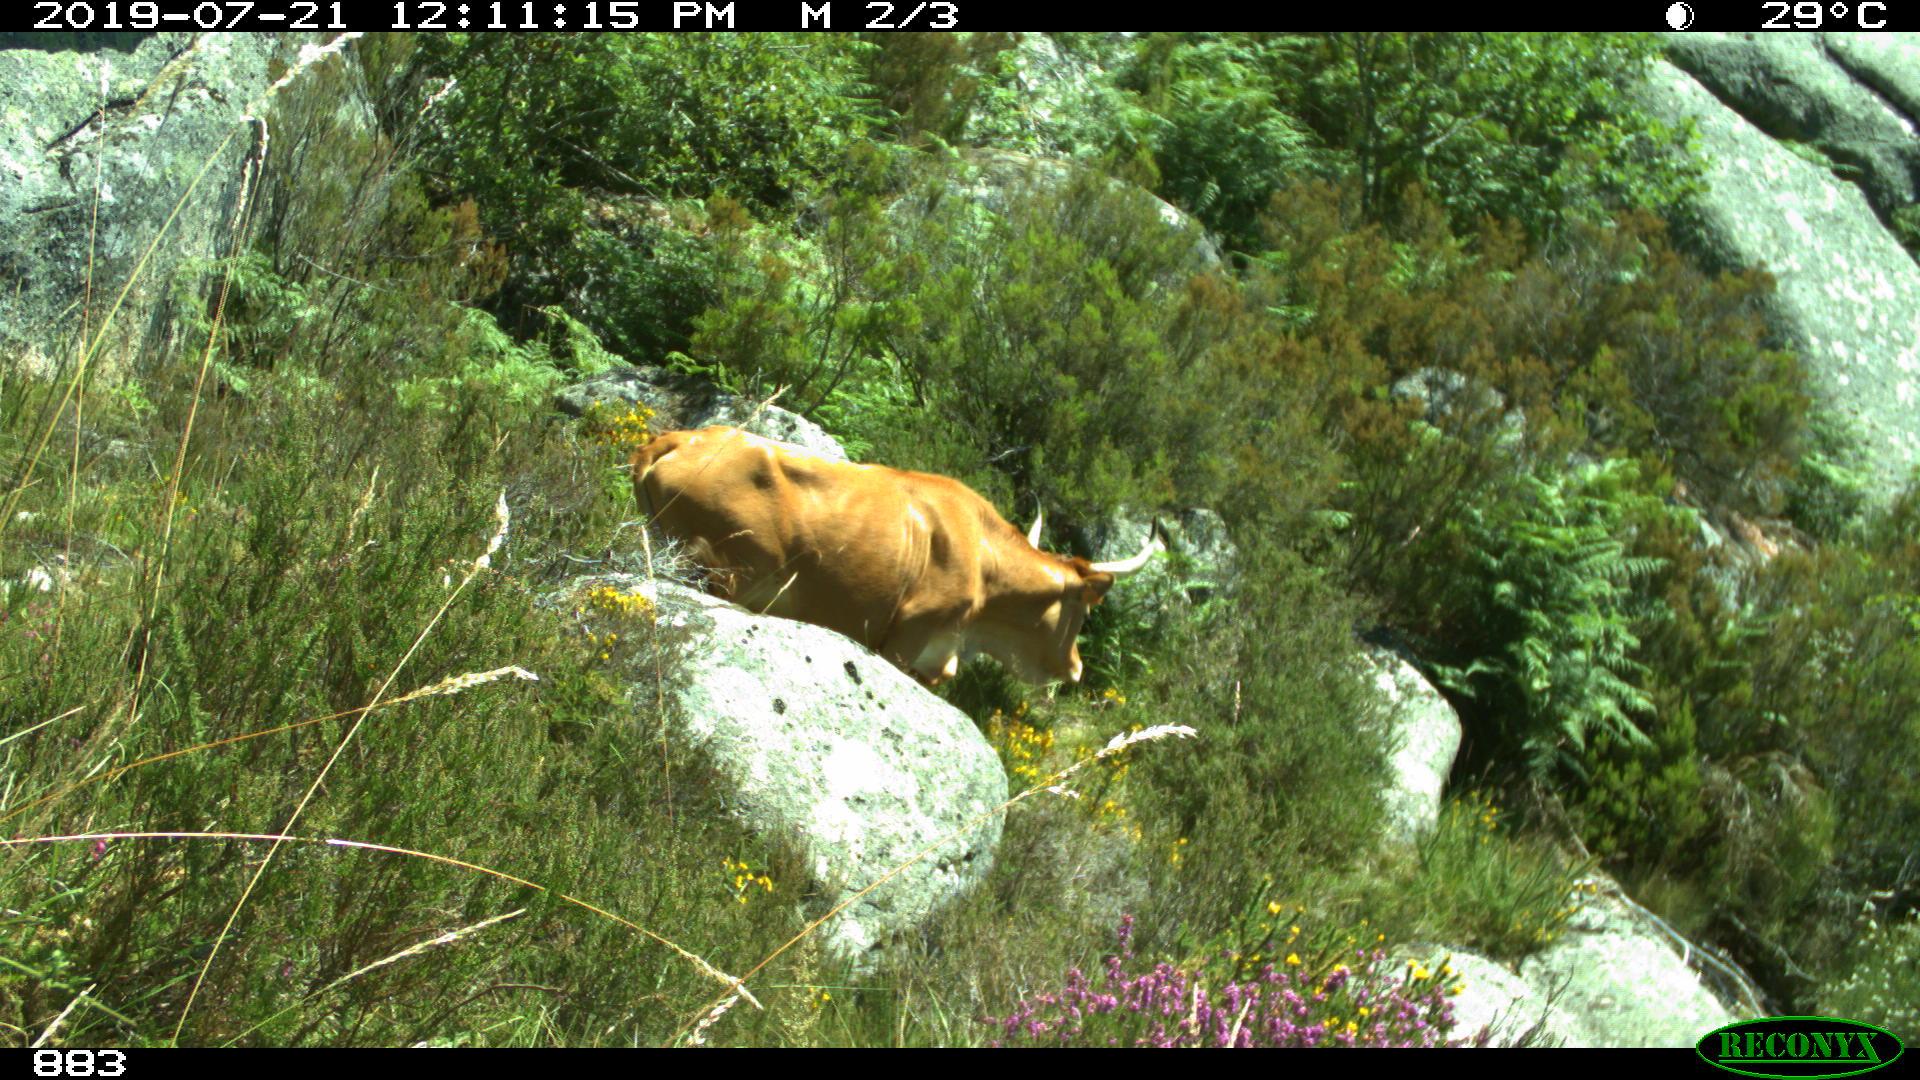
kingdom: Animalia
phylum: Chordata
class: Mammalia
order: Artiodactyla
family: Bovidae
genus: Bos
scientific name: Bos taurus
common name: Domesticated cattle
